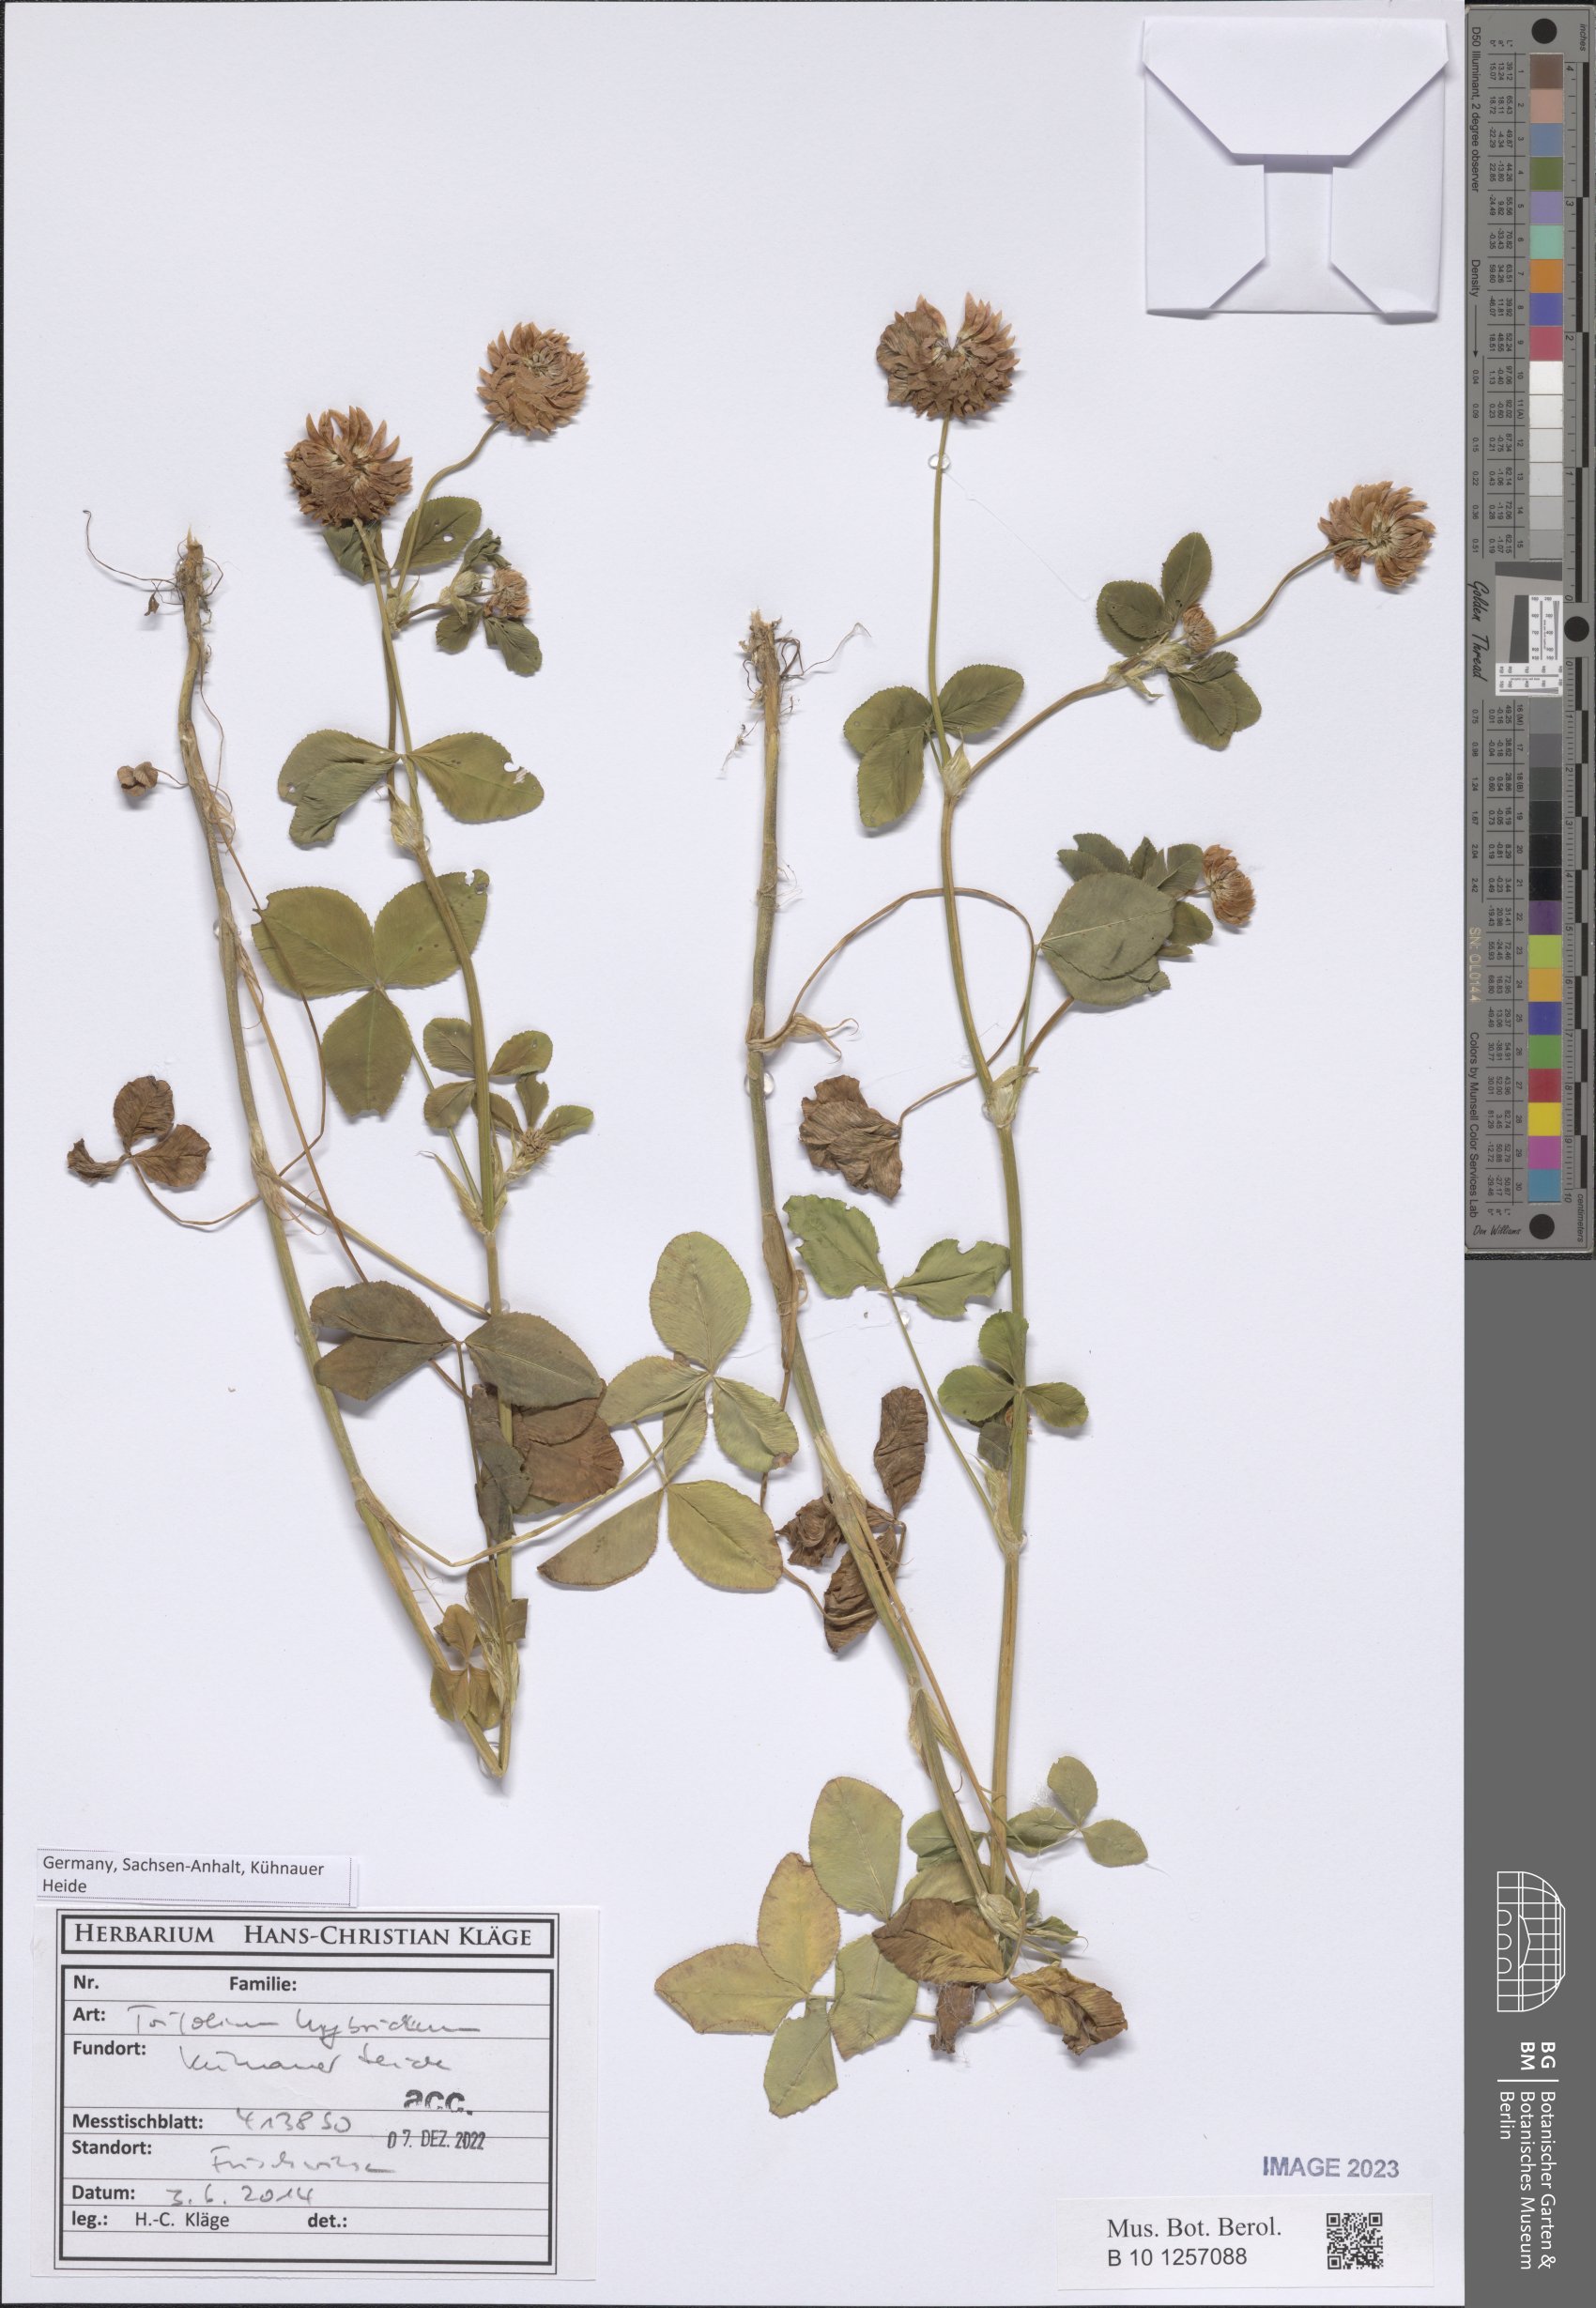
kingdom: Plantae
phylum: Tracheophyta
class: Magnoliopsida
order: Fabales
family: Fabaceae
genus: Trifolium
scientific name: Trifolium hybridum
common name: Alsike clover
